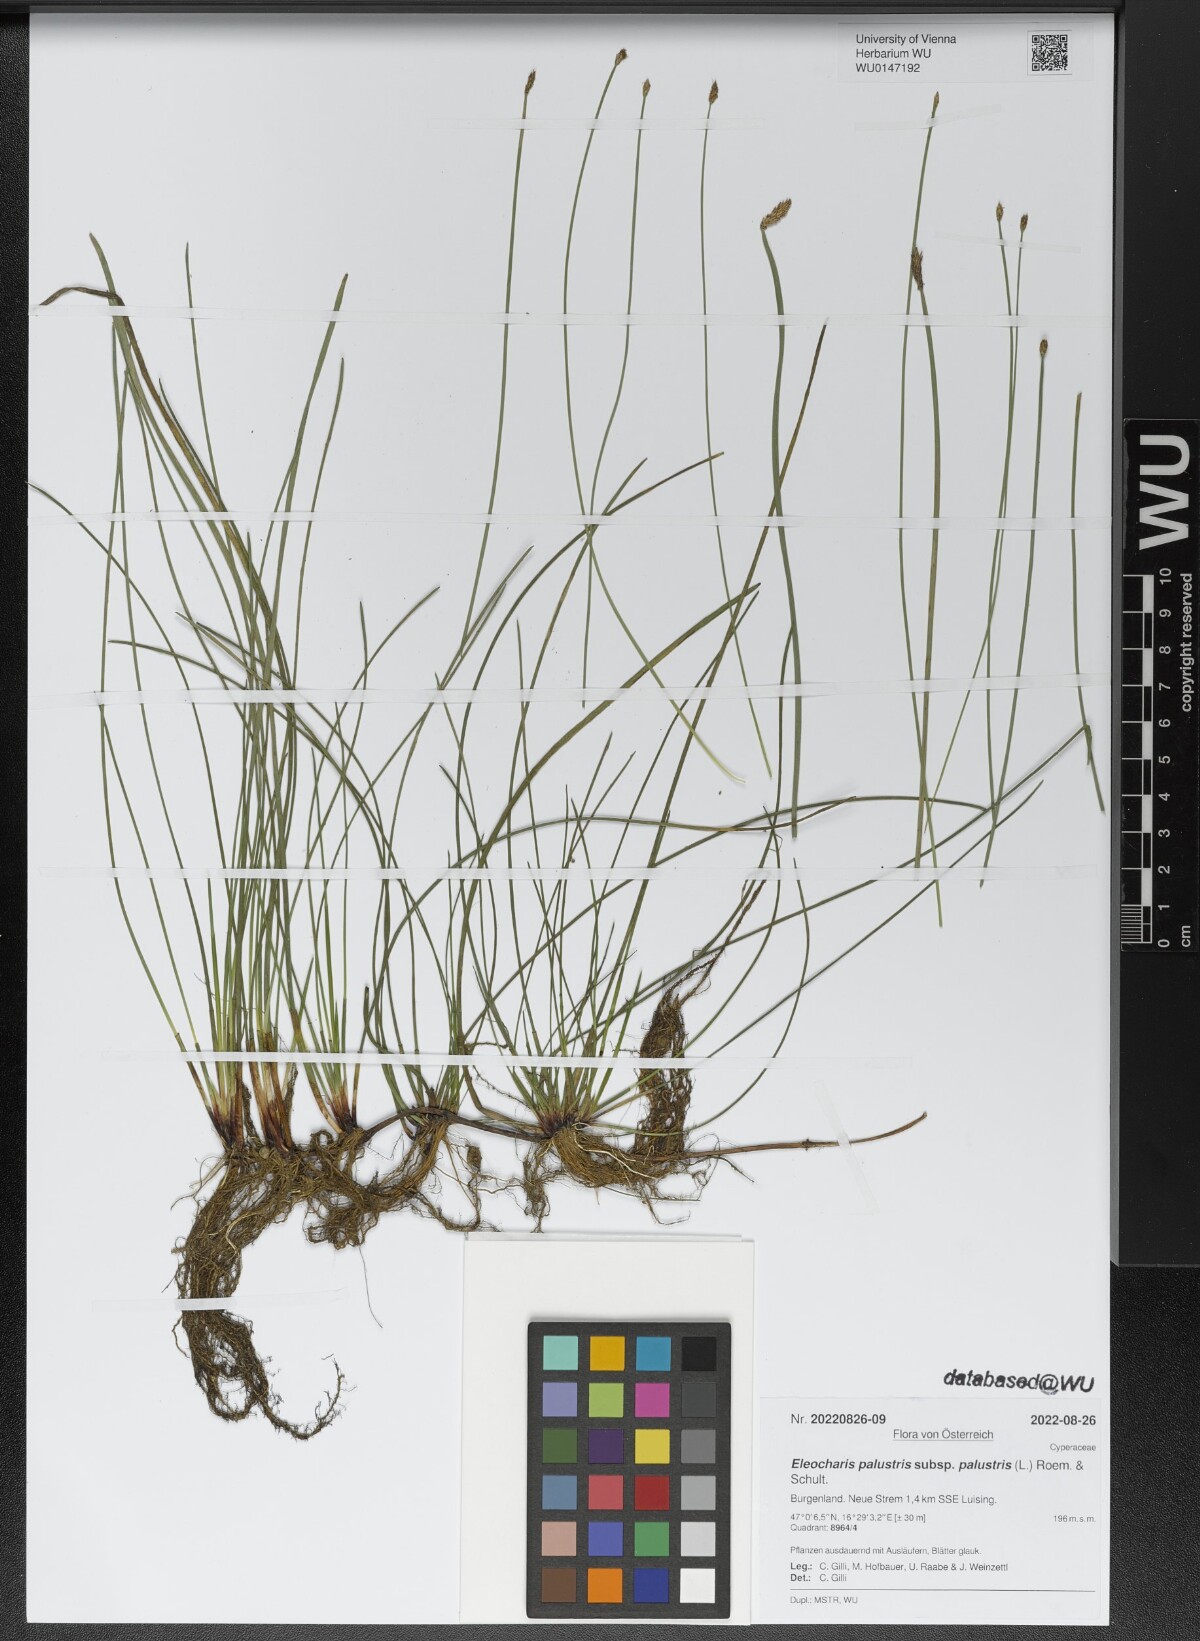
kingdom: Plantae
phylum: Tracheophyta
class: Liliopsida
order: Poales
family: Cyperaceae
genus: Eleocharis
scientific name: Eleocharis palustris
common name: Common spike-rush
